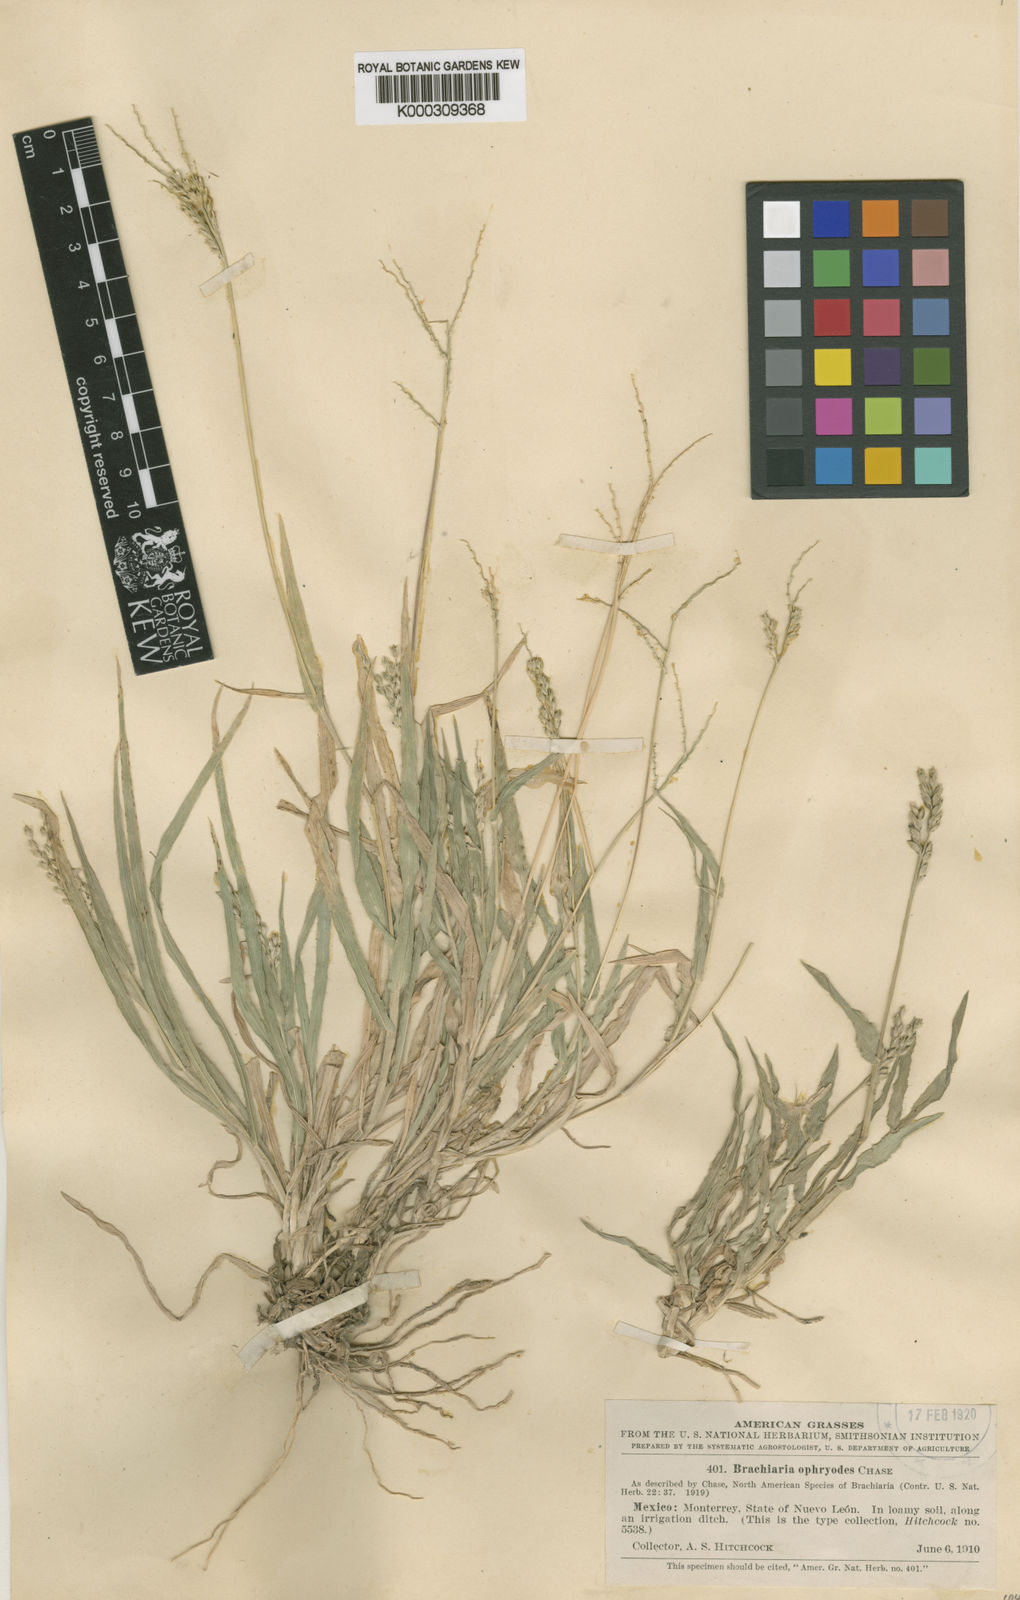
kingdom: Plantae
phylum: Tracheophyta
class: Liliopsida
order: Poales
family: Poaceae
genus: Urochloa
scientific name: Urochloa ophryodes
